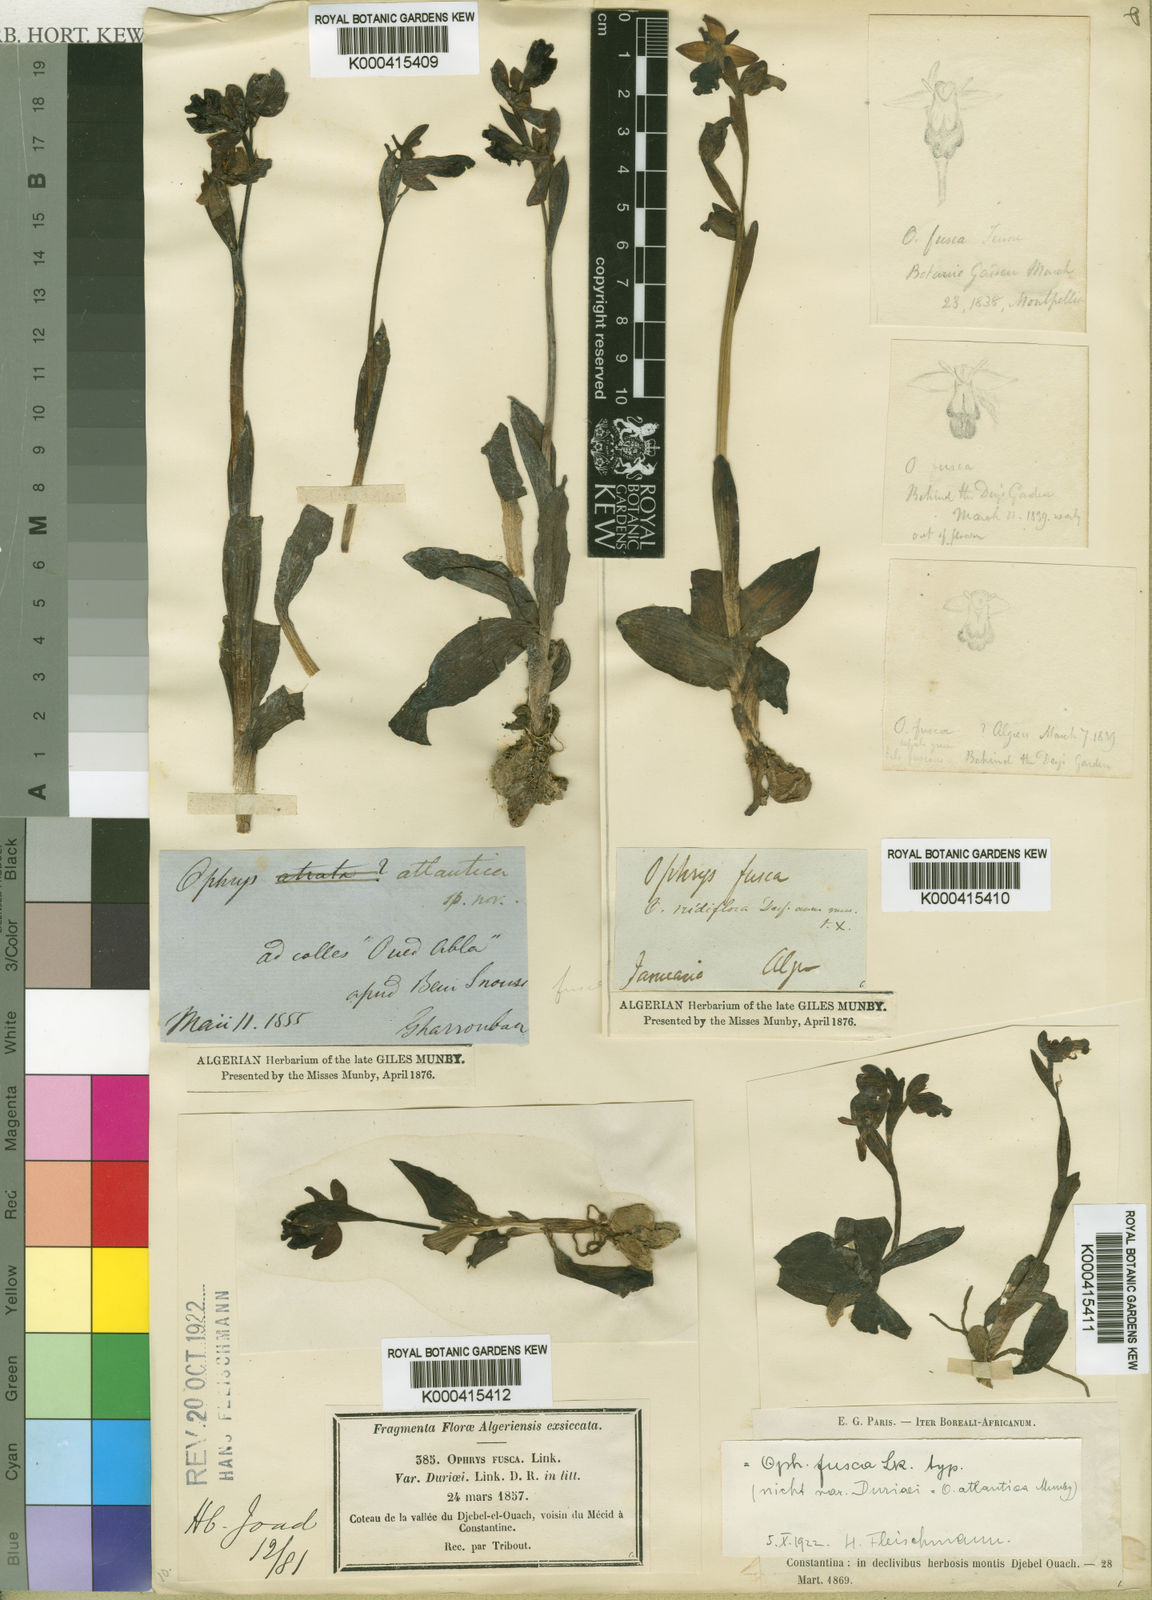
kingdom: Plantae
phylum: Tracheophyta
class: Liliopsida
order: Asparagales
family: Orchidaceae
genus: Ophrys
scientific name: Ophrys
